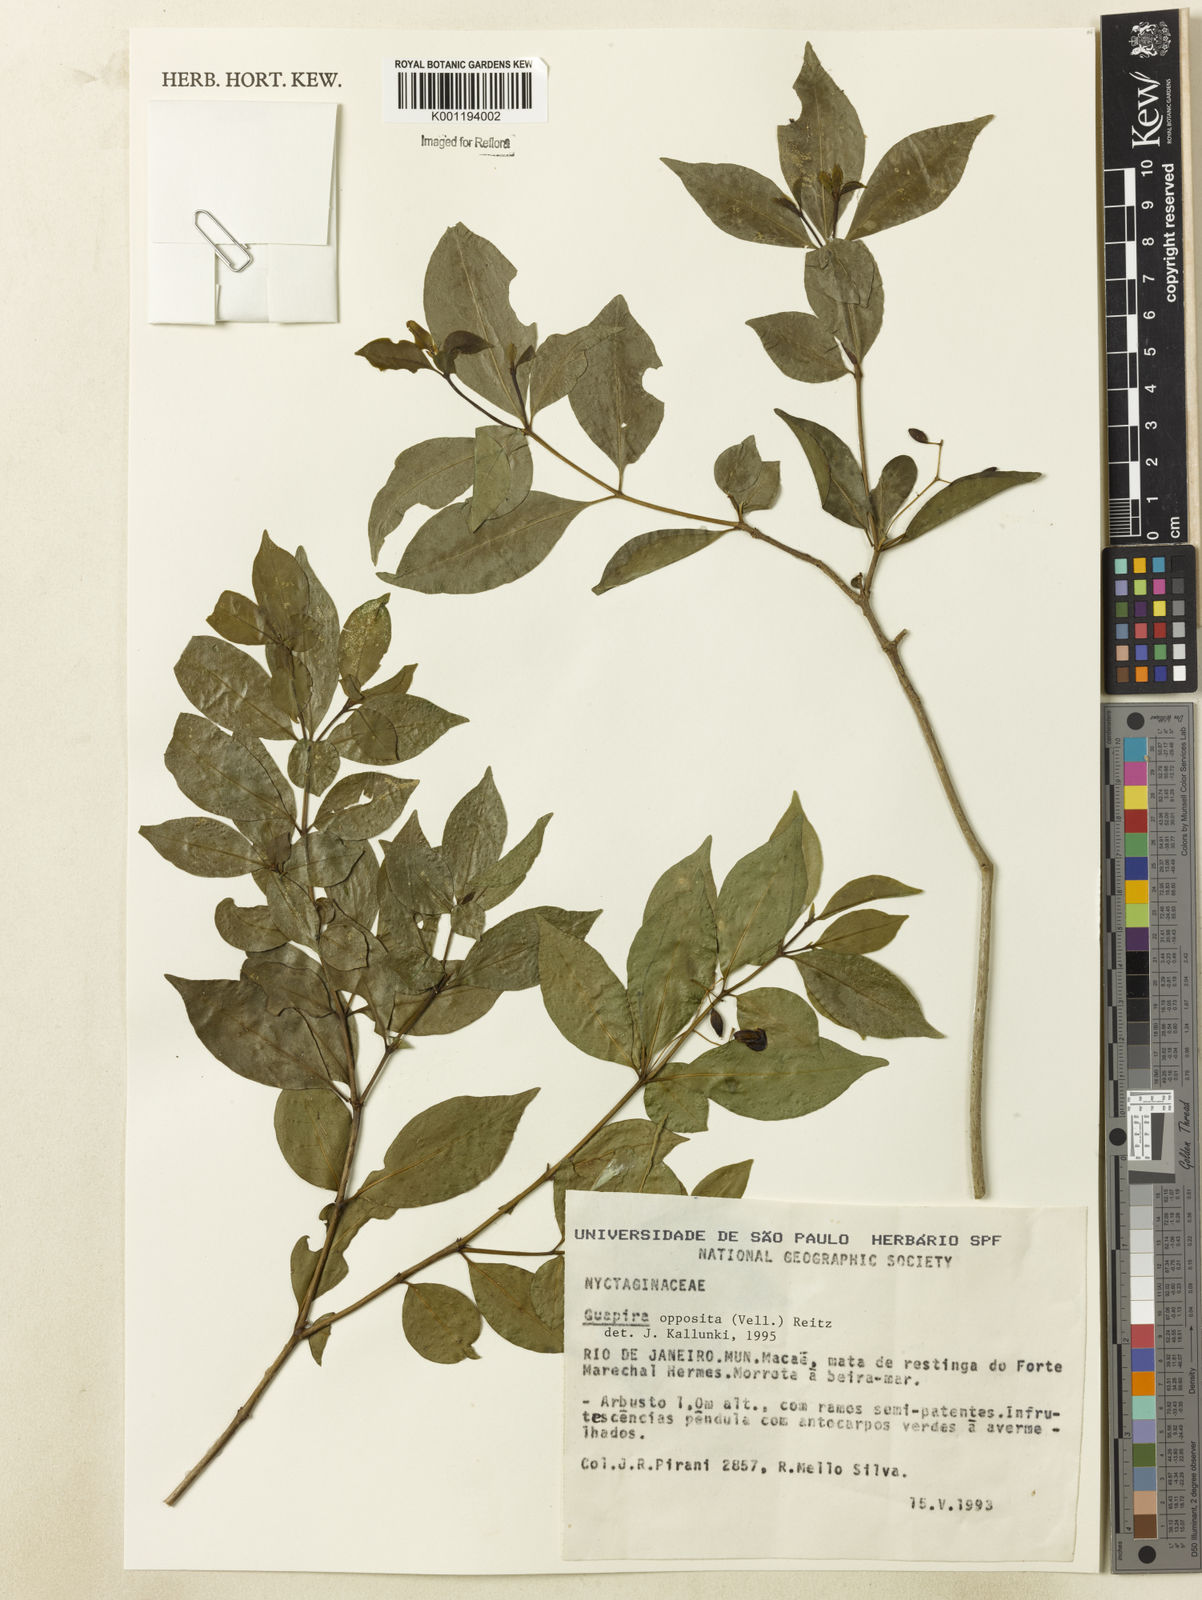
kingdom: Plantae
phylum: Tracheophyta
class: Magnoliopsida
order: Caryophyllales
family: Nyctaginaceae
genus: Guapira
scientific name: Guapira opposita
